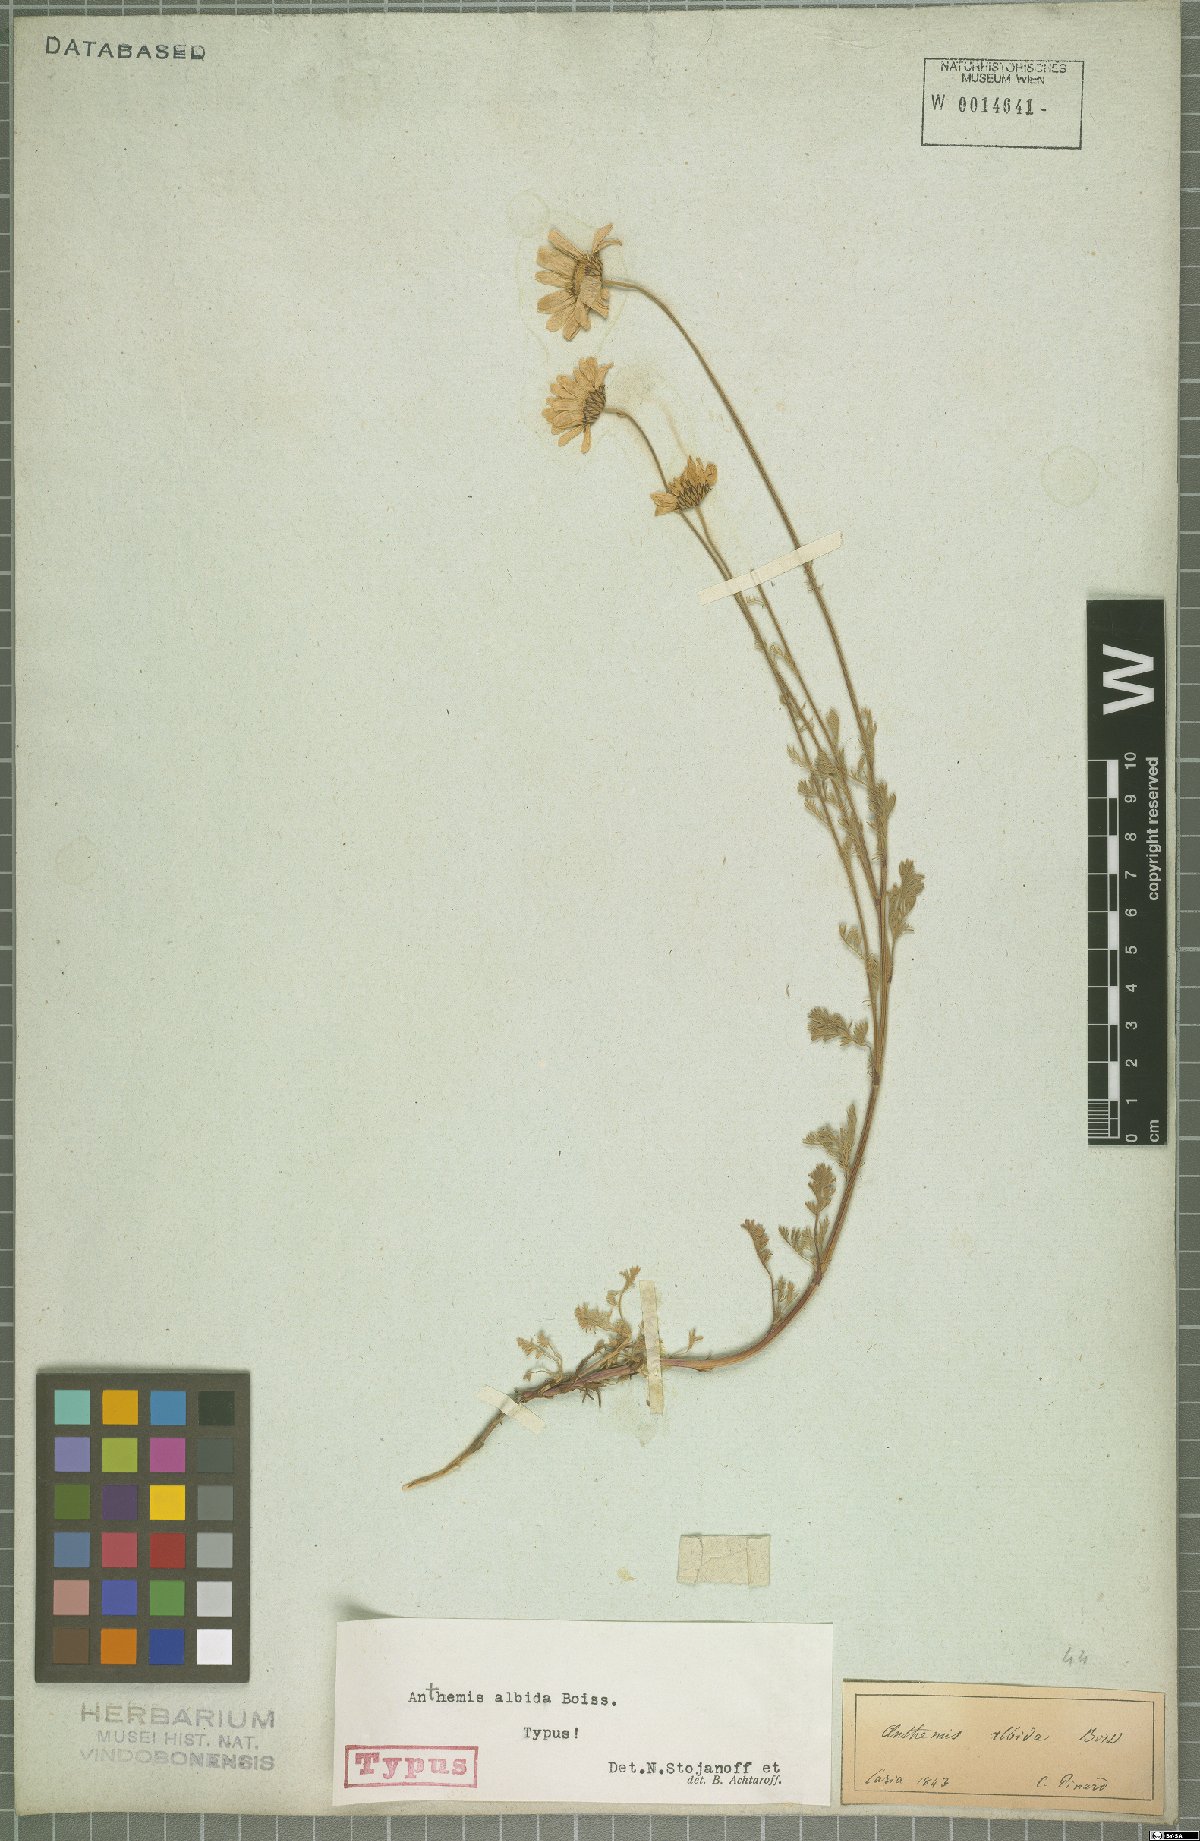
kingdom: Plantae
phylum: Tracheophyta
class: Magnoliopsida
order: Asterales
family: Asteraceae
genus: Anthemis
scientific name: Anthemis cretica
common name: Mountain dog-daisy
